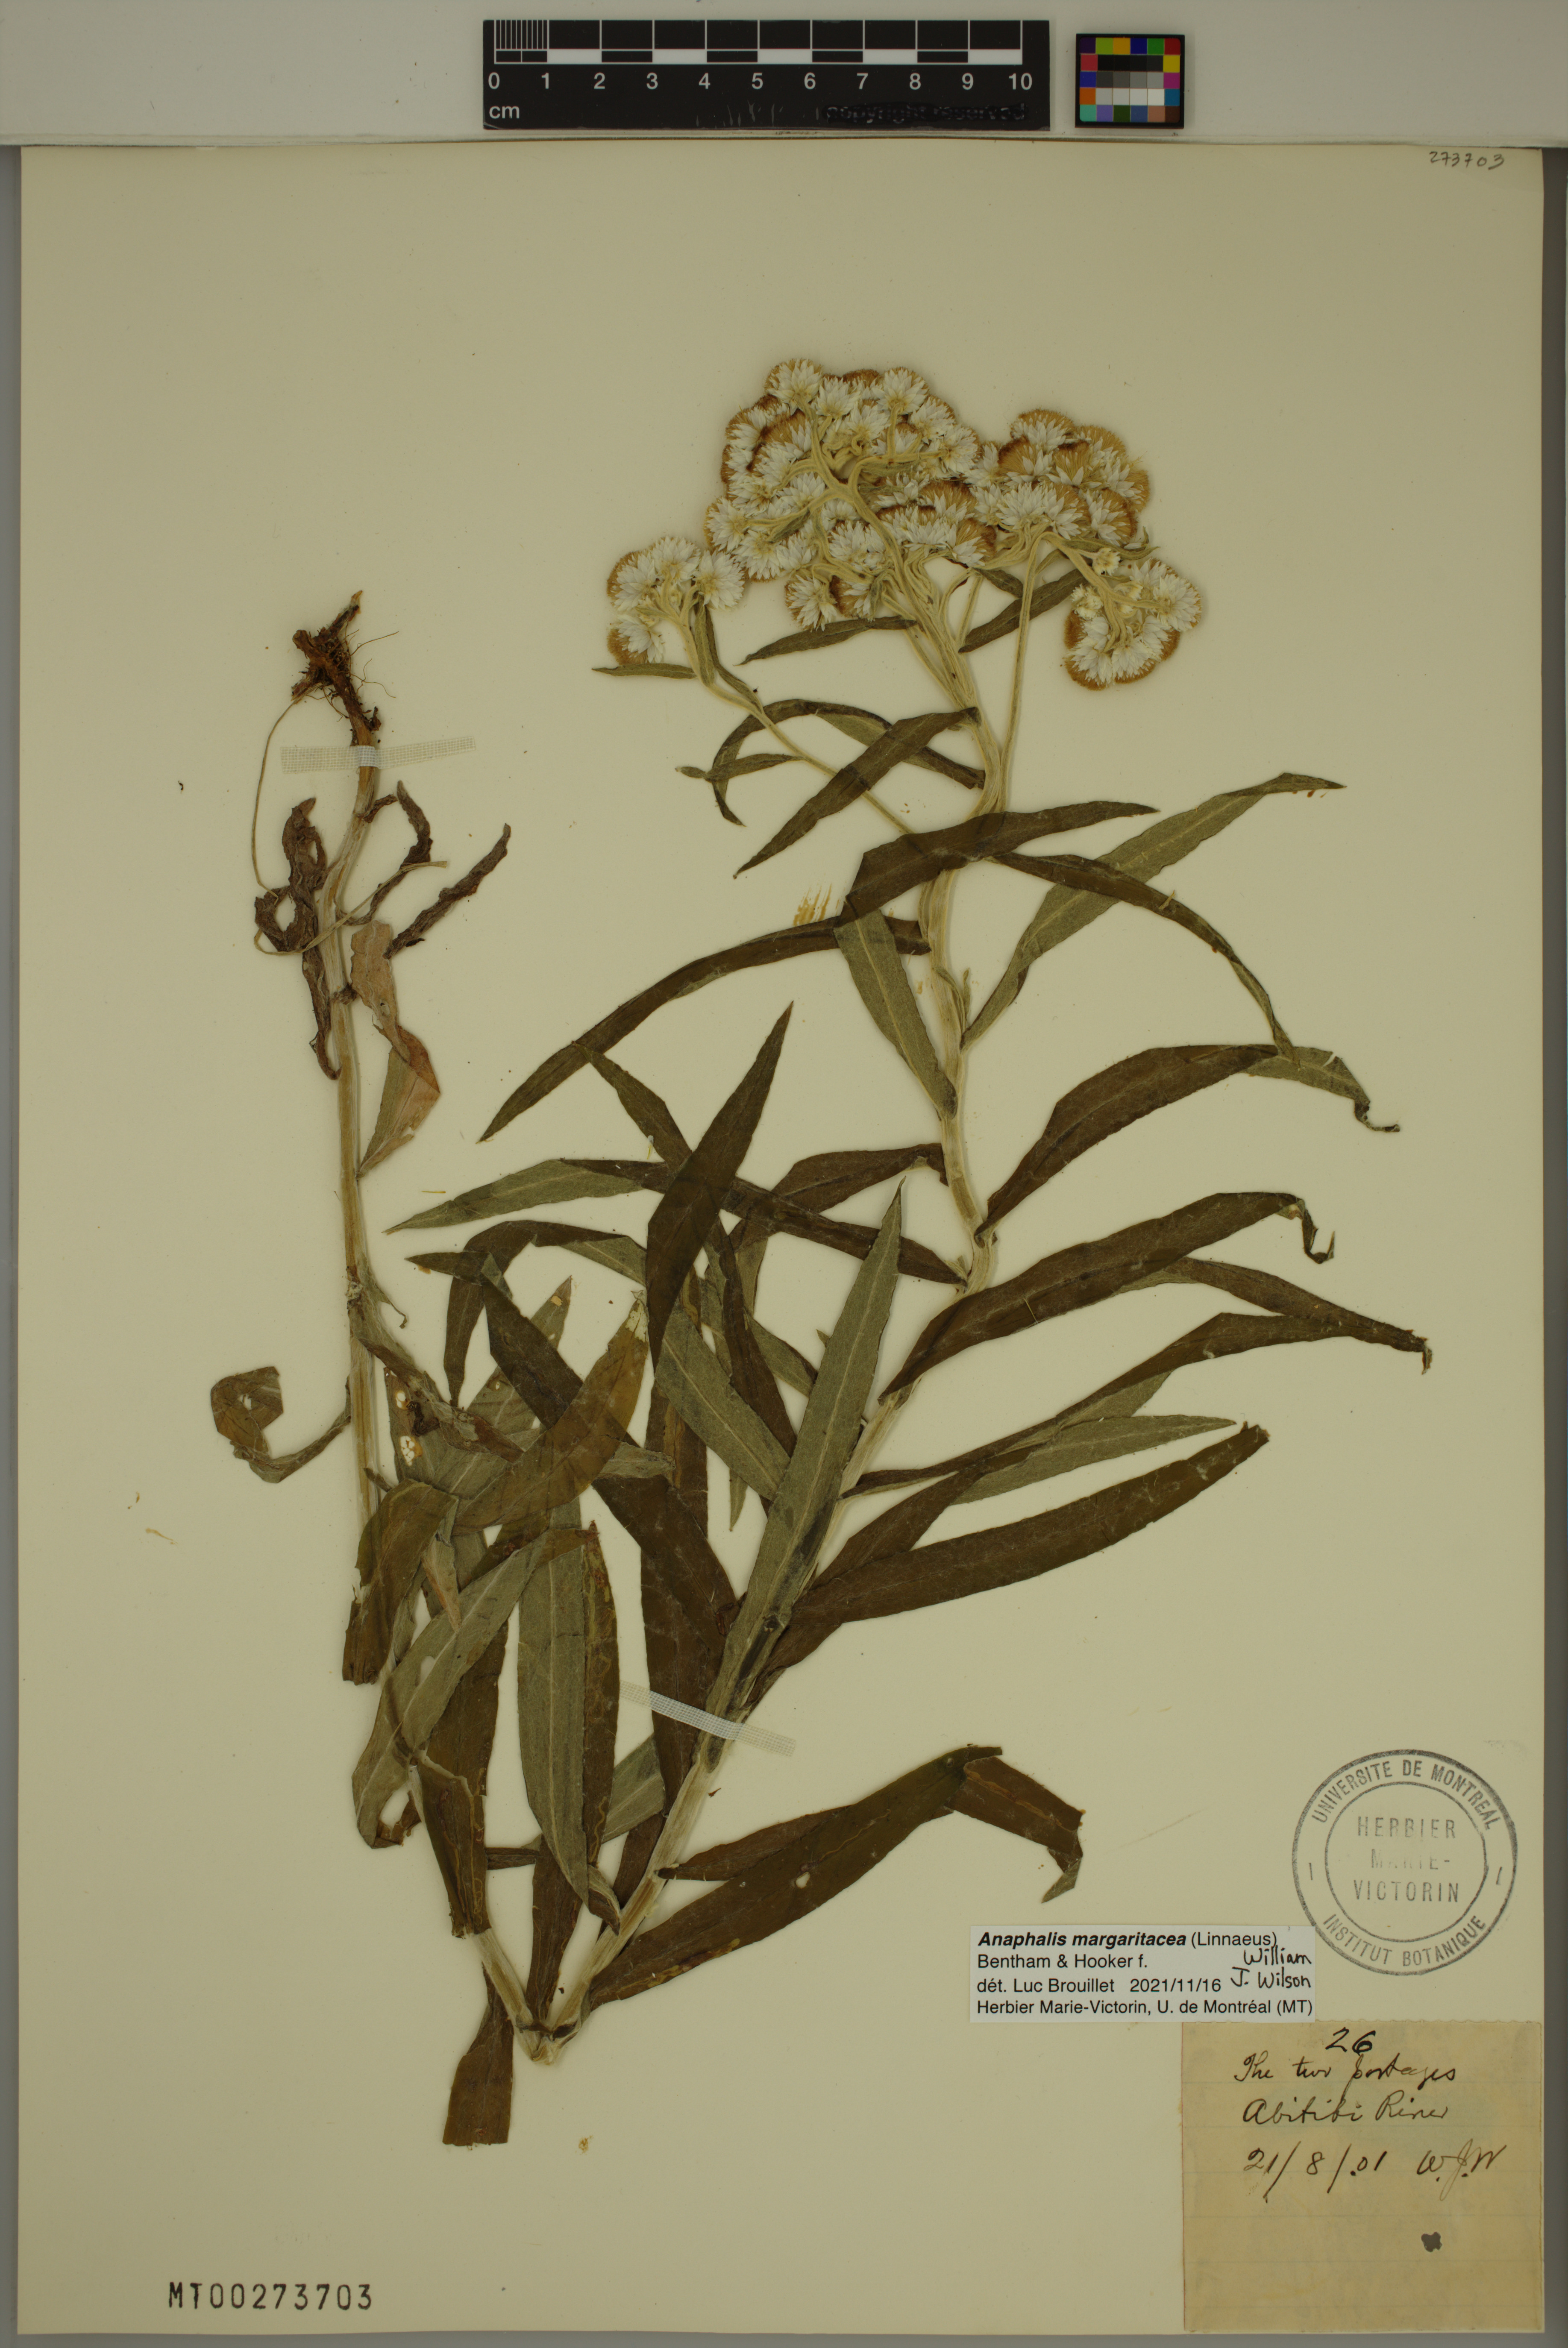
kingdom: Plantae
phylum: Tracheophyta
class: Magnoliopsida
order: Asterales
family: Asteraceae
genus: Anaphalis
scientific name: Anaphalis margaritacea
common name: Pearly everlasting
